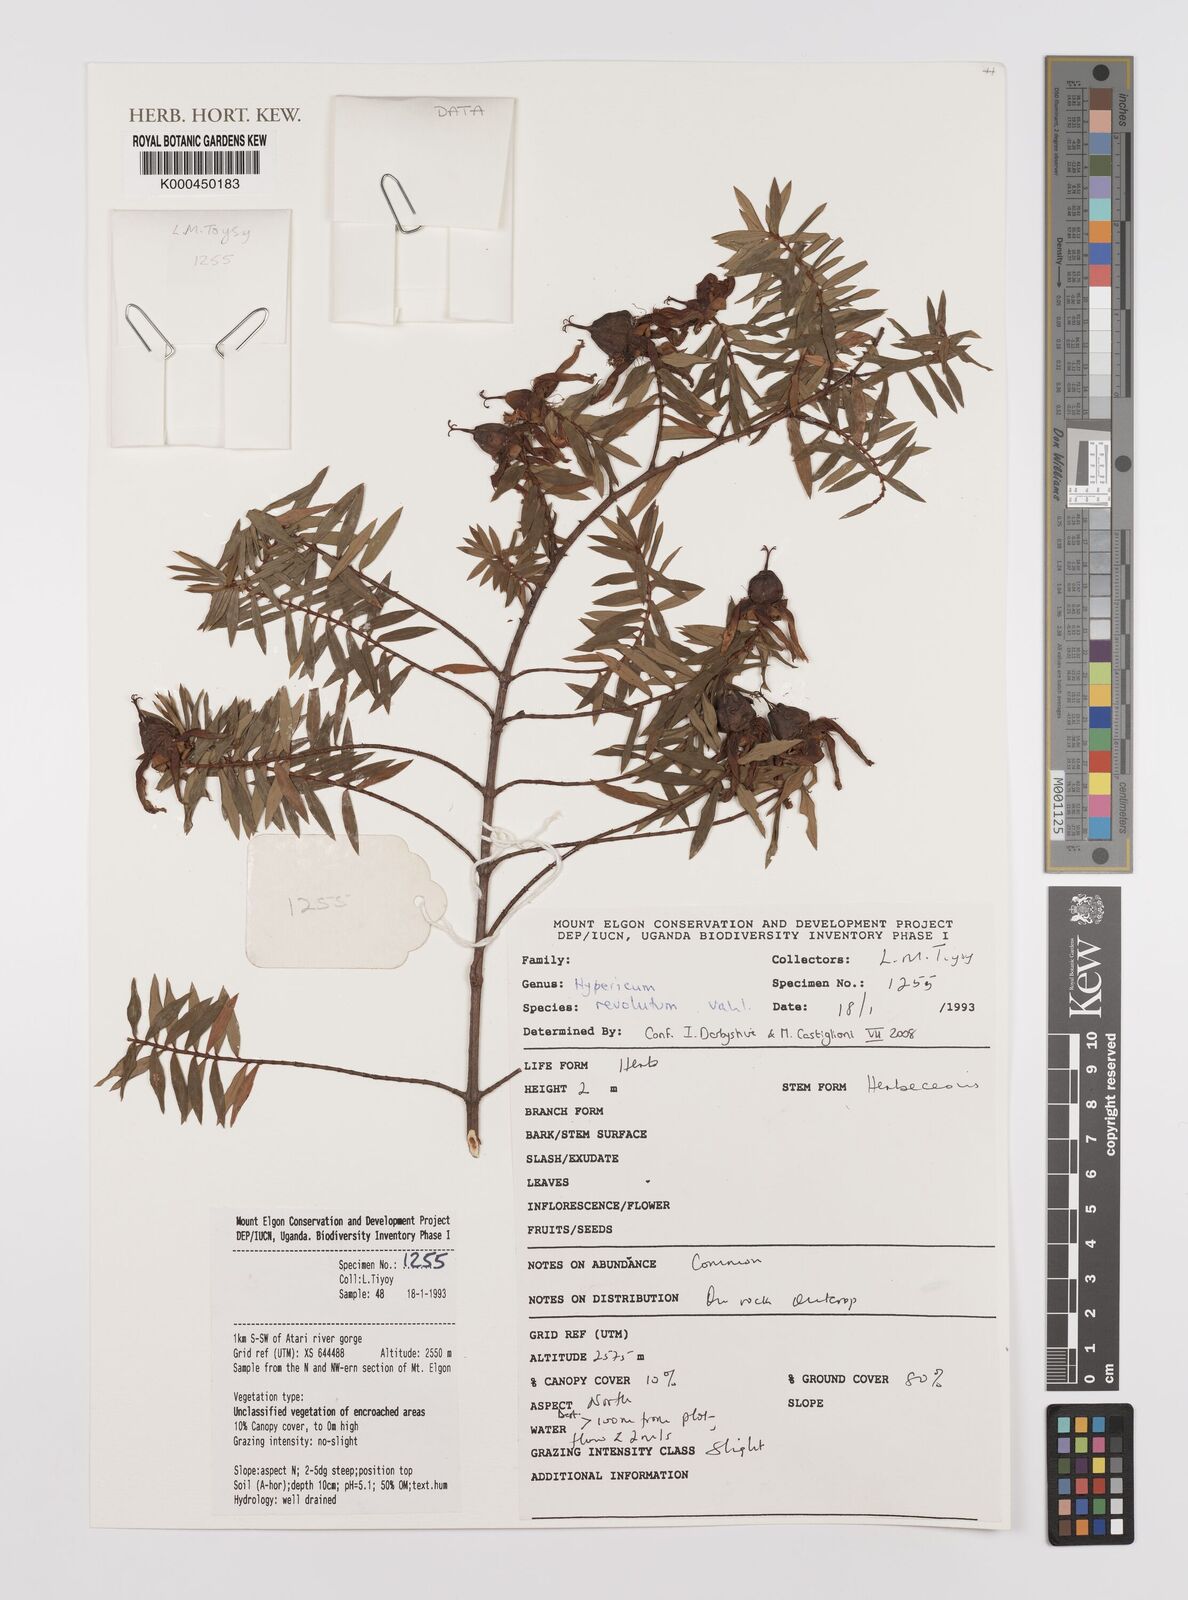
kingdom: Plantae
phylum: Tracheophyta
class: Magnoliopsida
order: Malpighiales
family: Hypericaceae
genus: Hypericum
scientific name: Hypericum revolutum
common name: Curry bush
